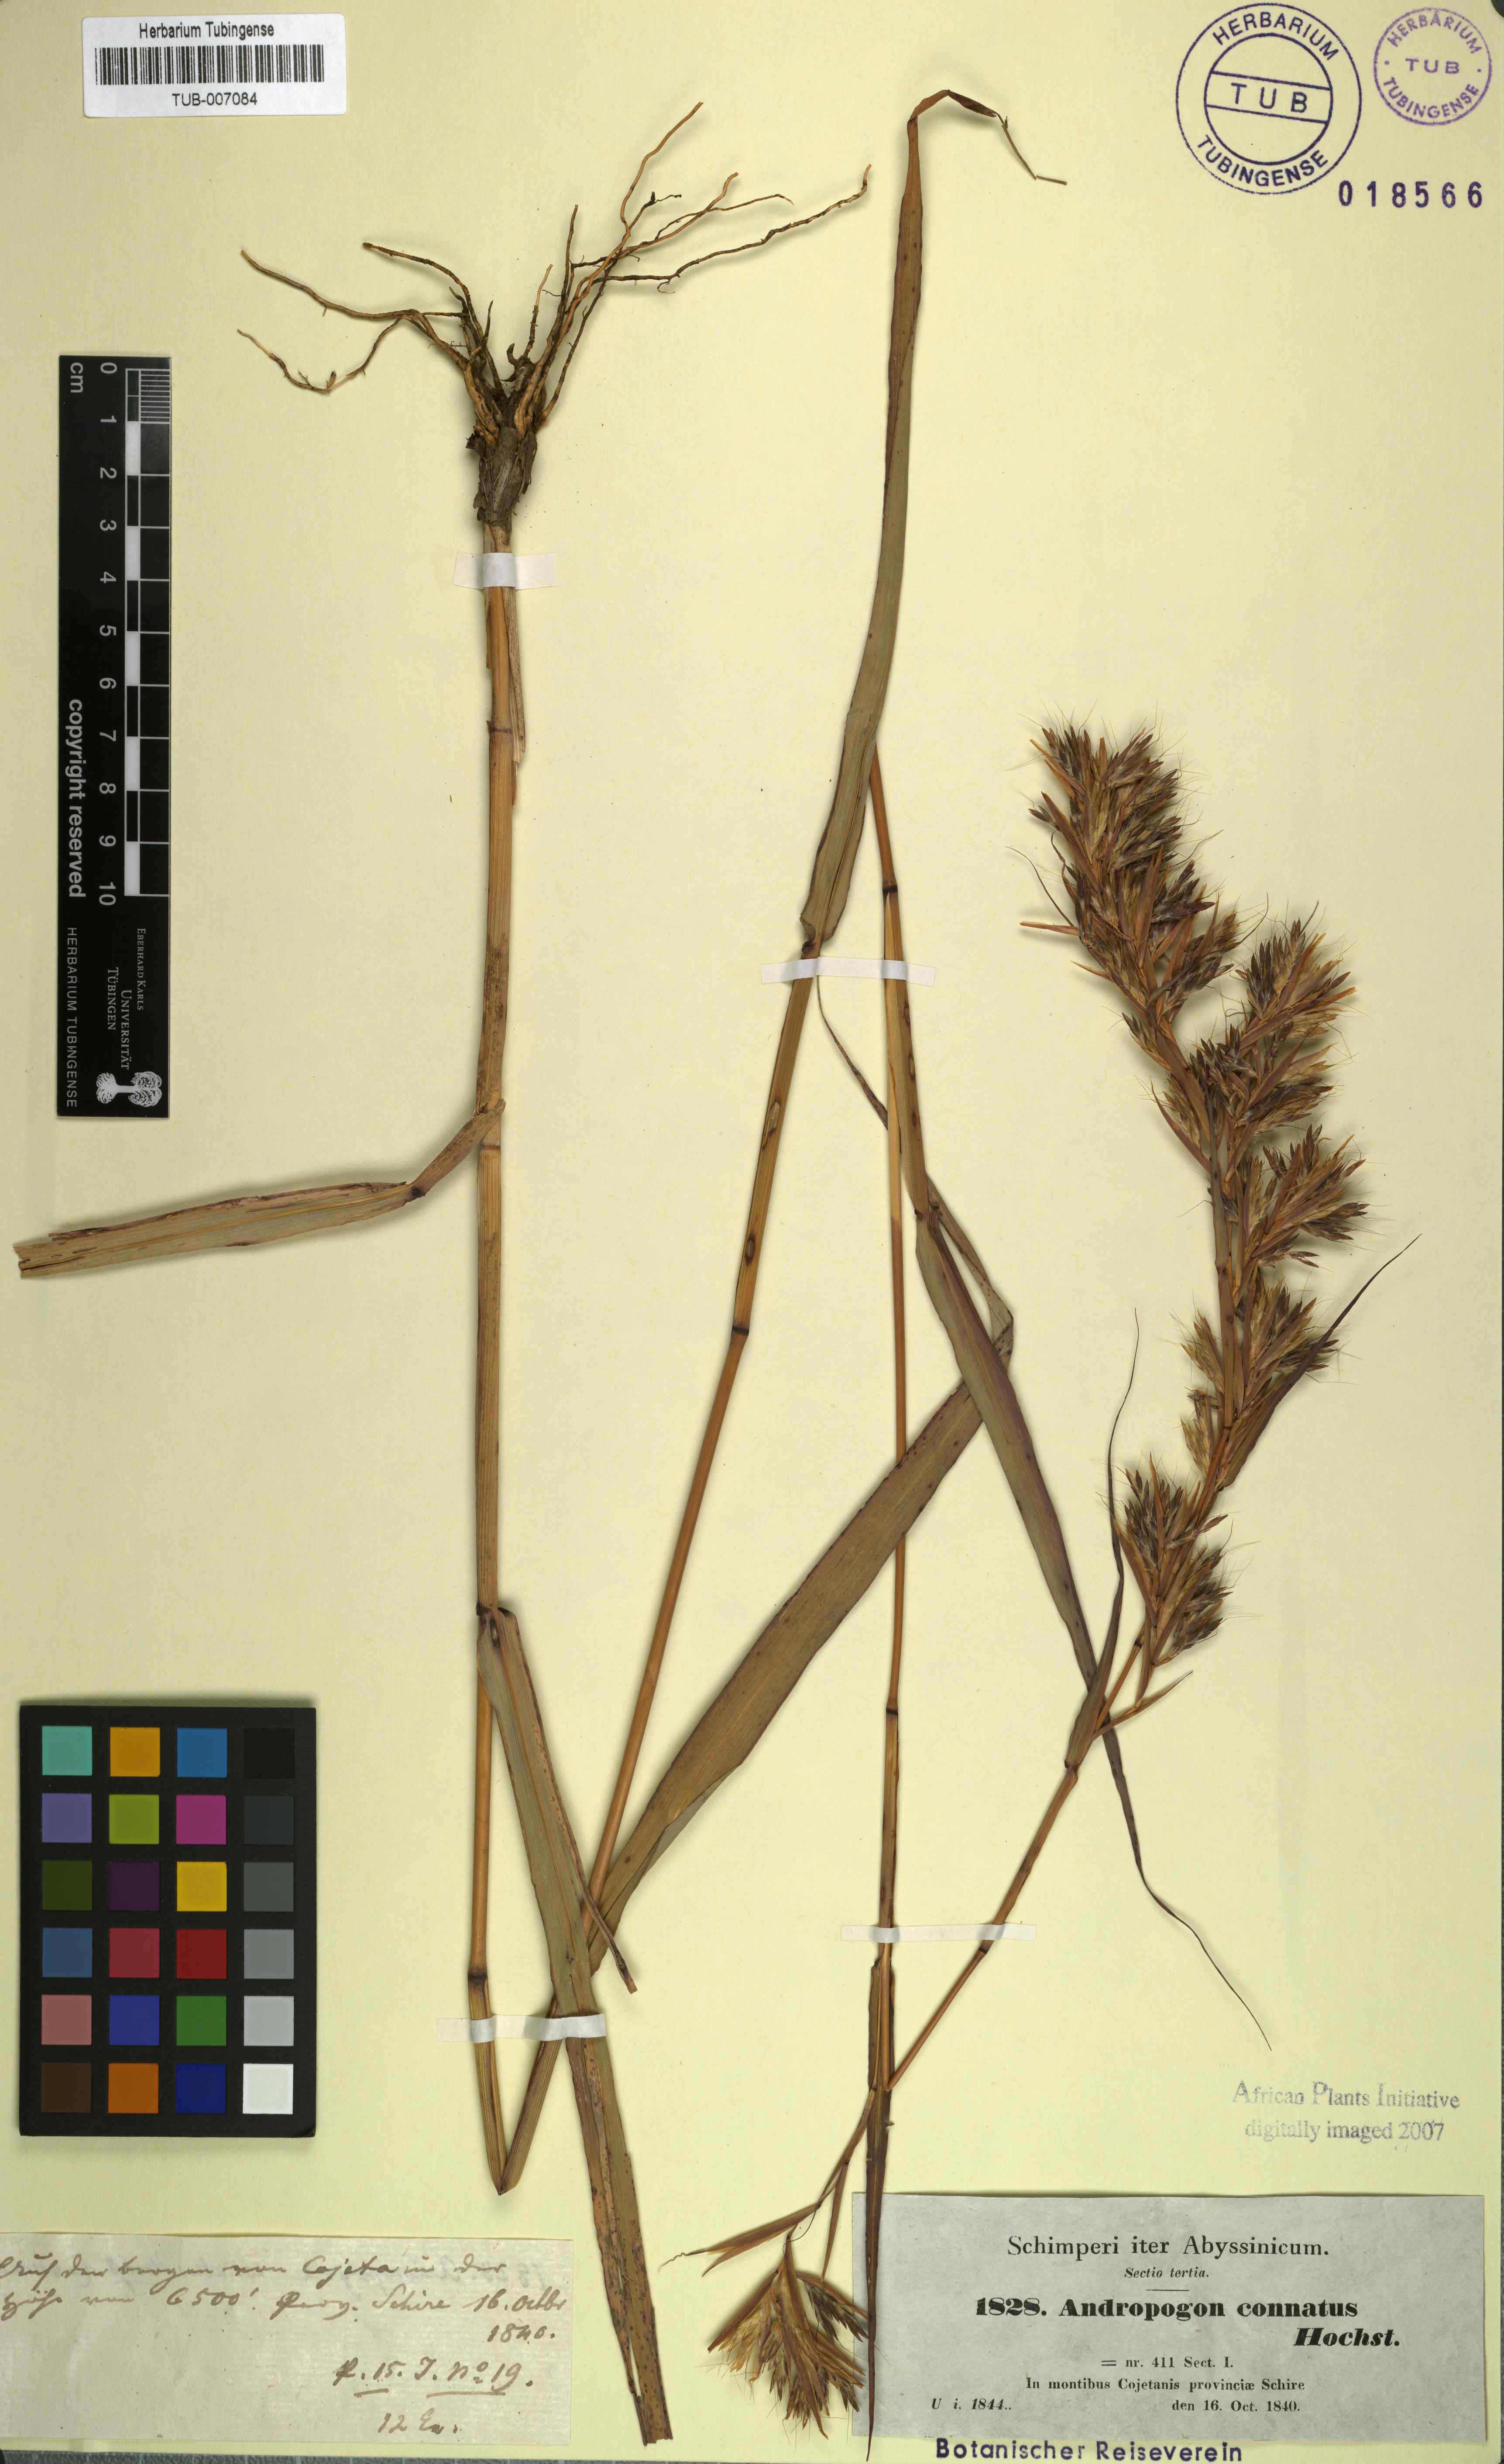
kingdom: Plantae
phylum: Tracheophyta
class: Liliopsida
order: Poales
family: Poaceae
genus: Cymbopogon
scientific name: Cymbopogon schoenanthus
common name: Geranium grass
